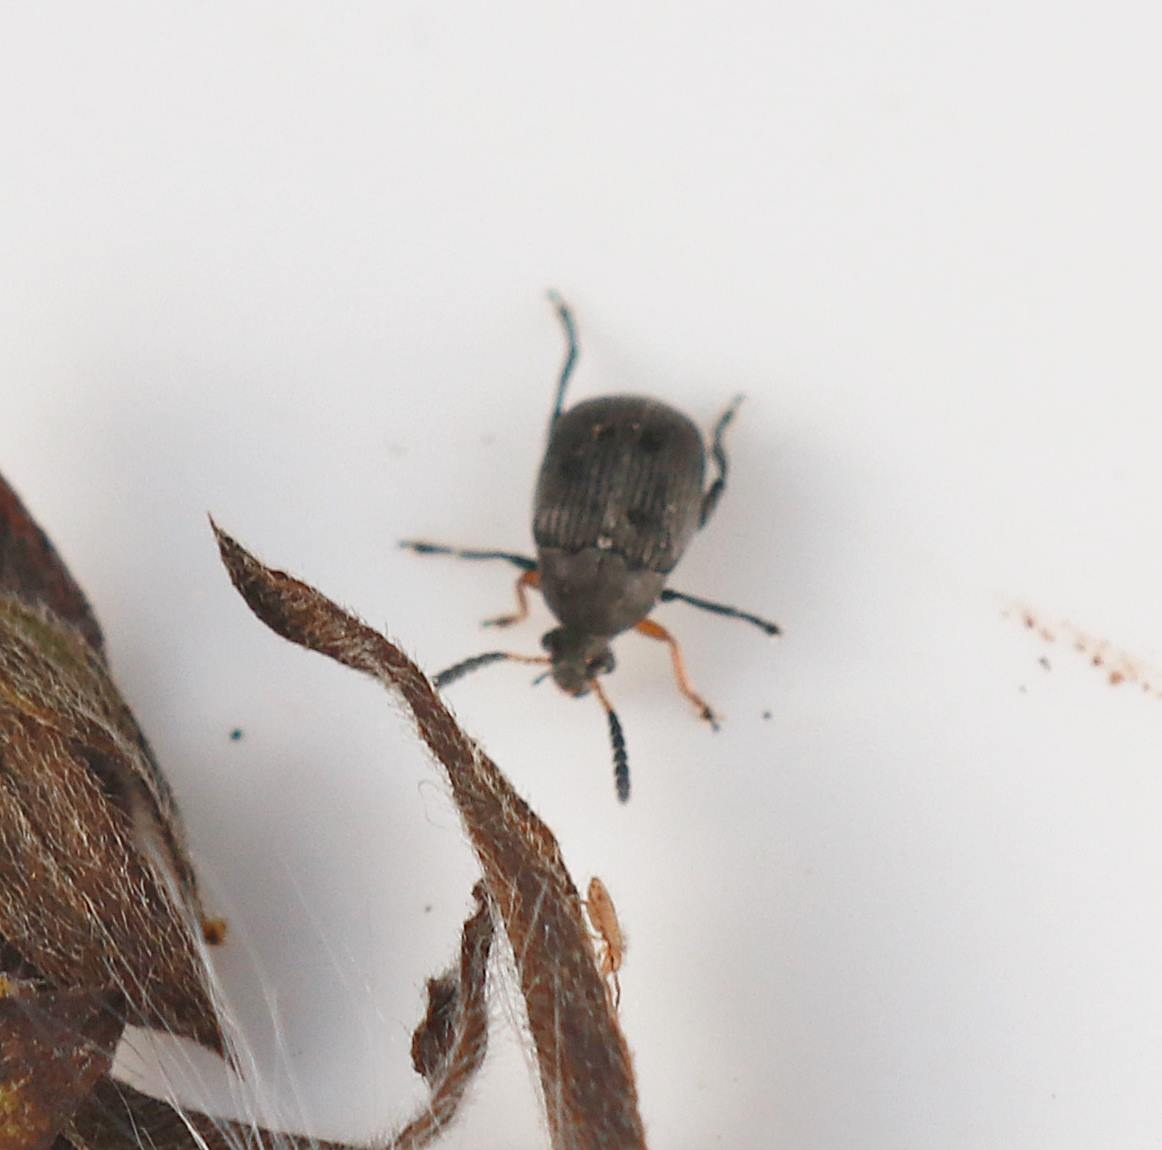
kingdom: Animalia
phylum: Arthropoda
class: Insecta
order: Coleoptera
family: Chrysomelidae
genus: Bruchus
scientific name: Bruchus loti
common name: Lille bønnebille
